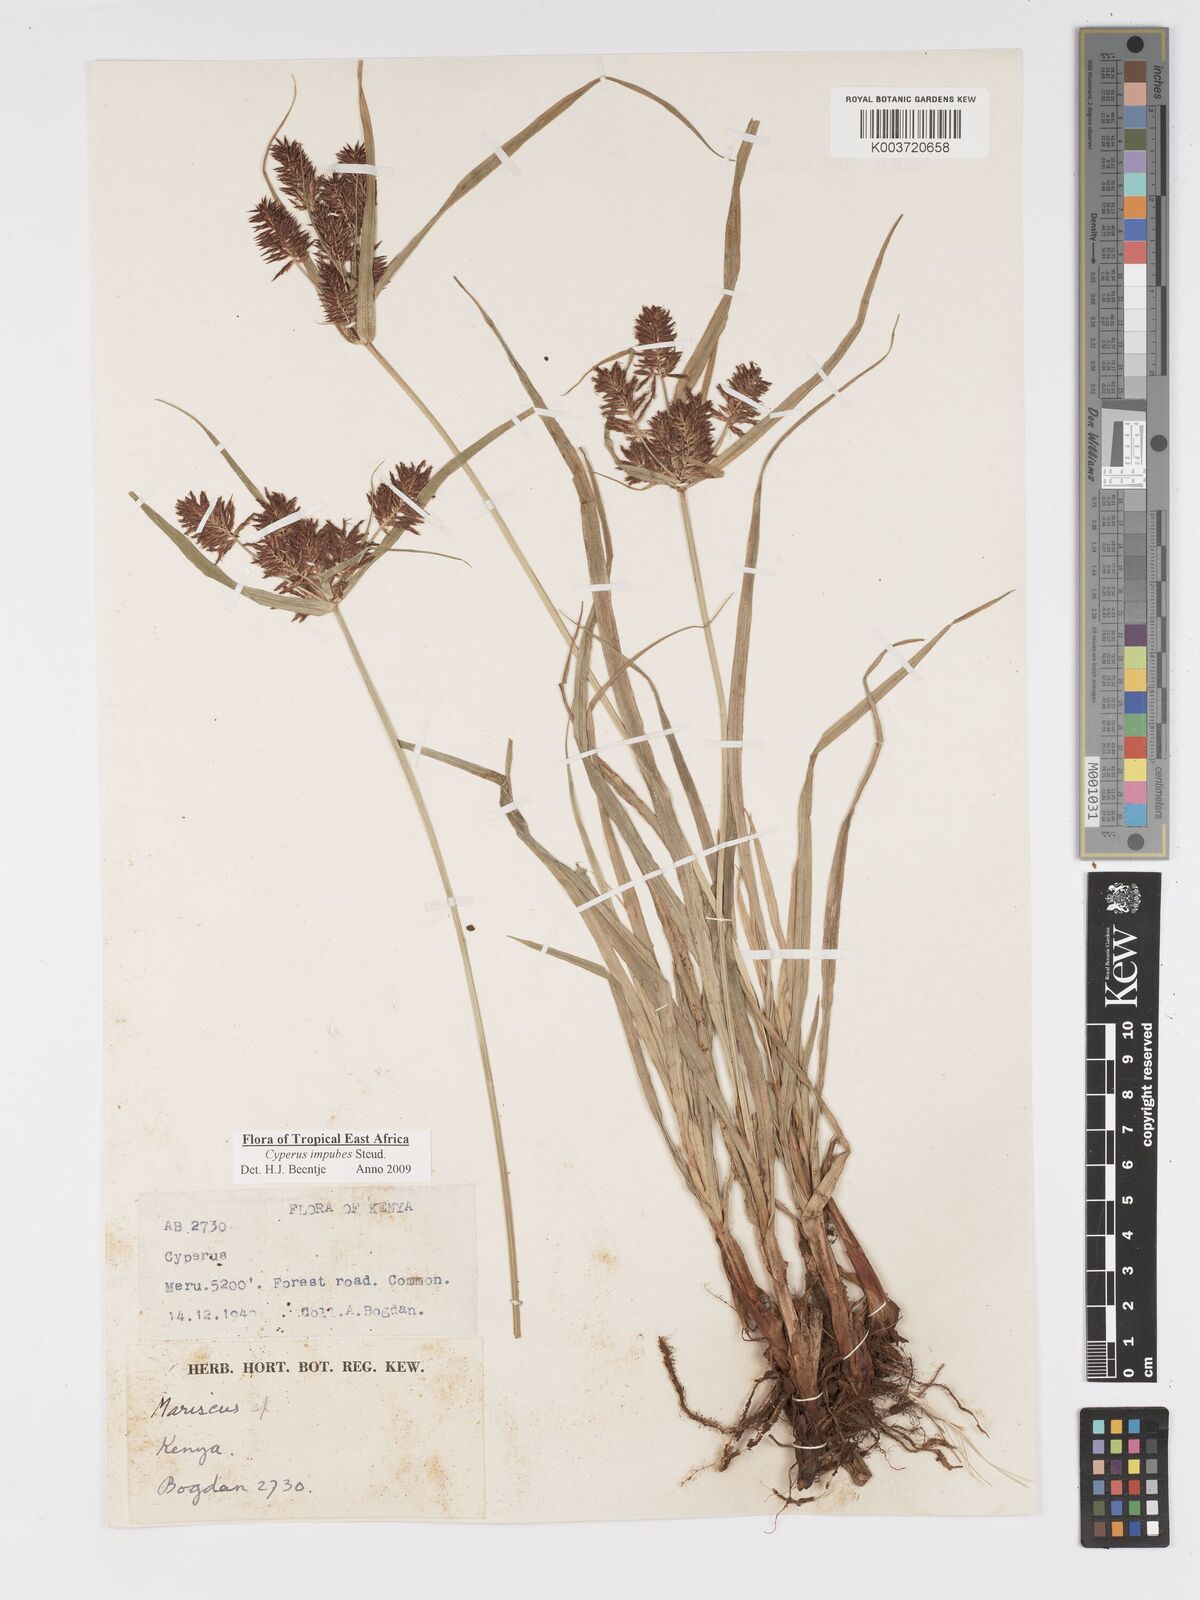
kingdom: Plantae
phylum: Tracheophyta
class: Liliopsida
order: Poales
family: Cyperaceae
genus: Cyperus
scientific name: Cyperus impubes
